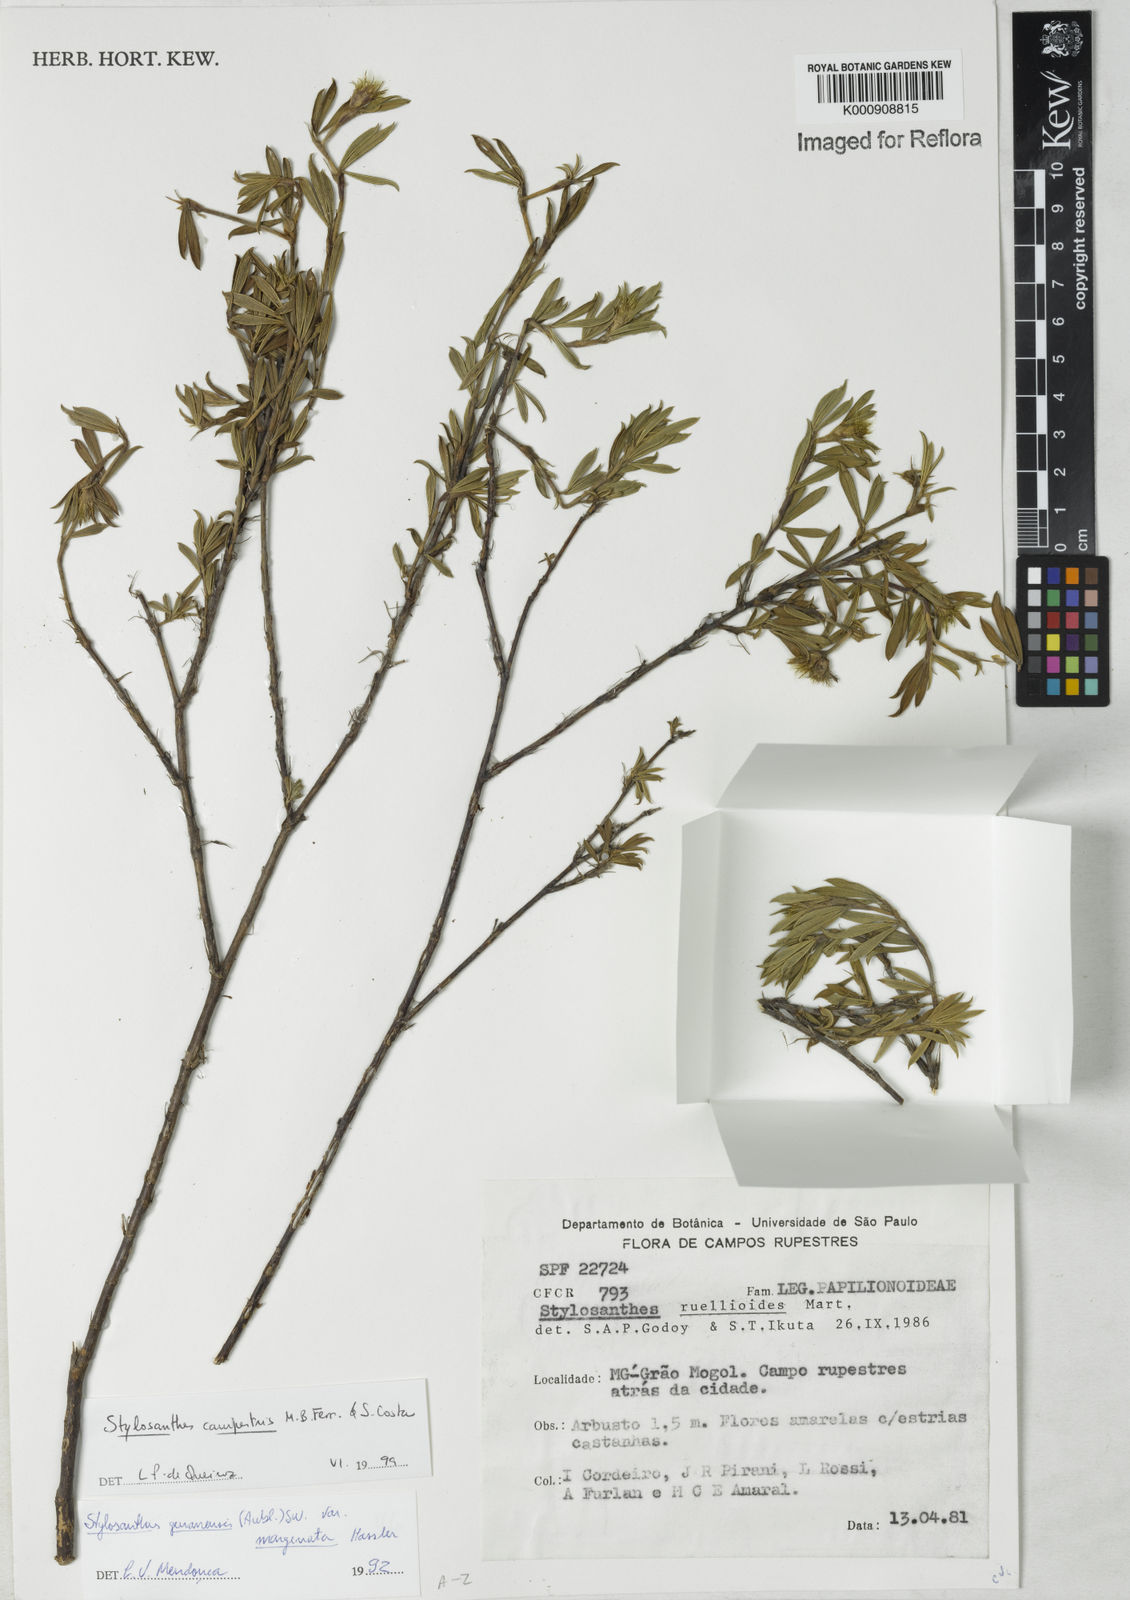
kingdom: Plantae
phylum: Tracheophyta
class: Magnoliopsida
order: Fabales
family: Fabaceae
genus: Stylosanthes
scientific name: Stylosanthes campestris
